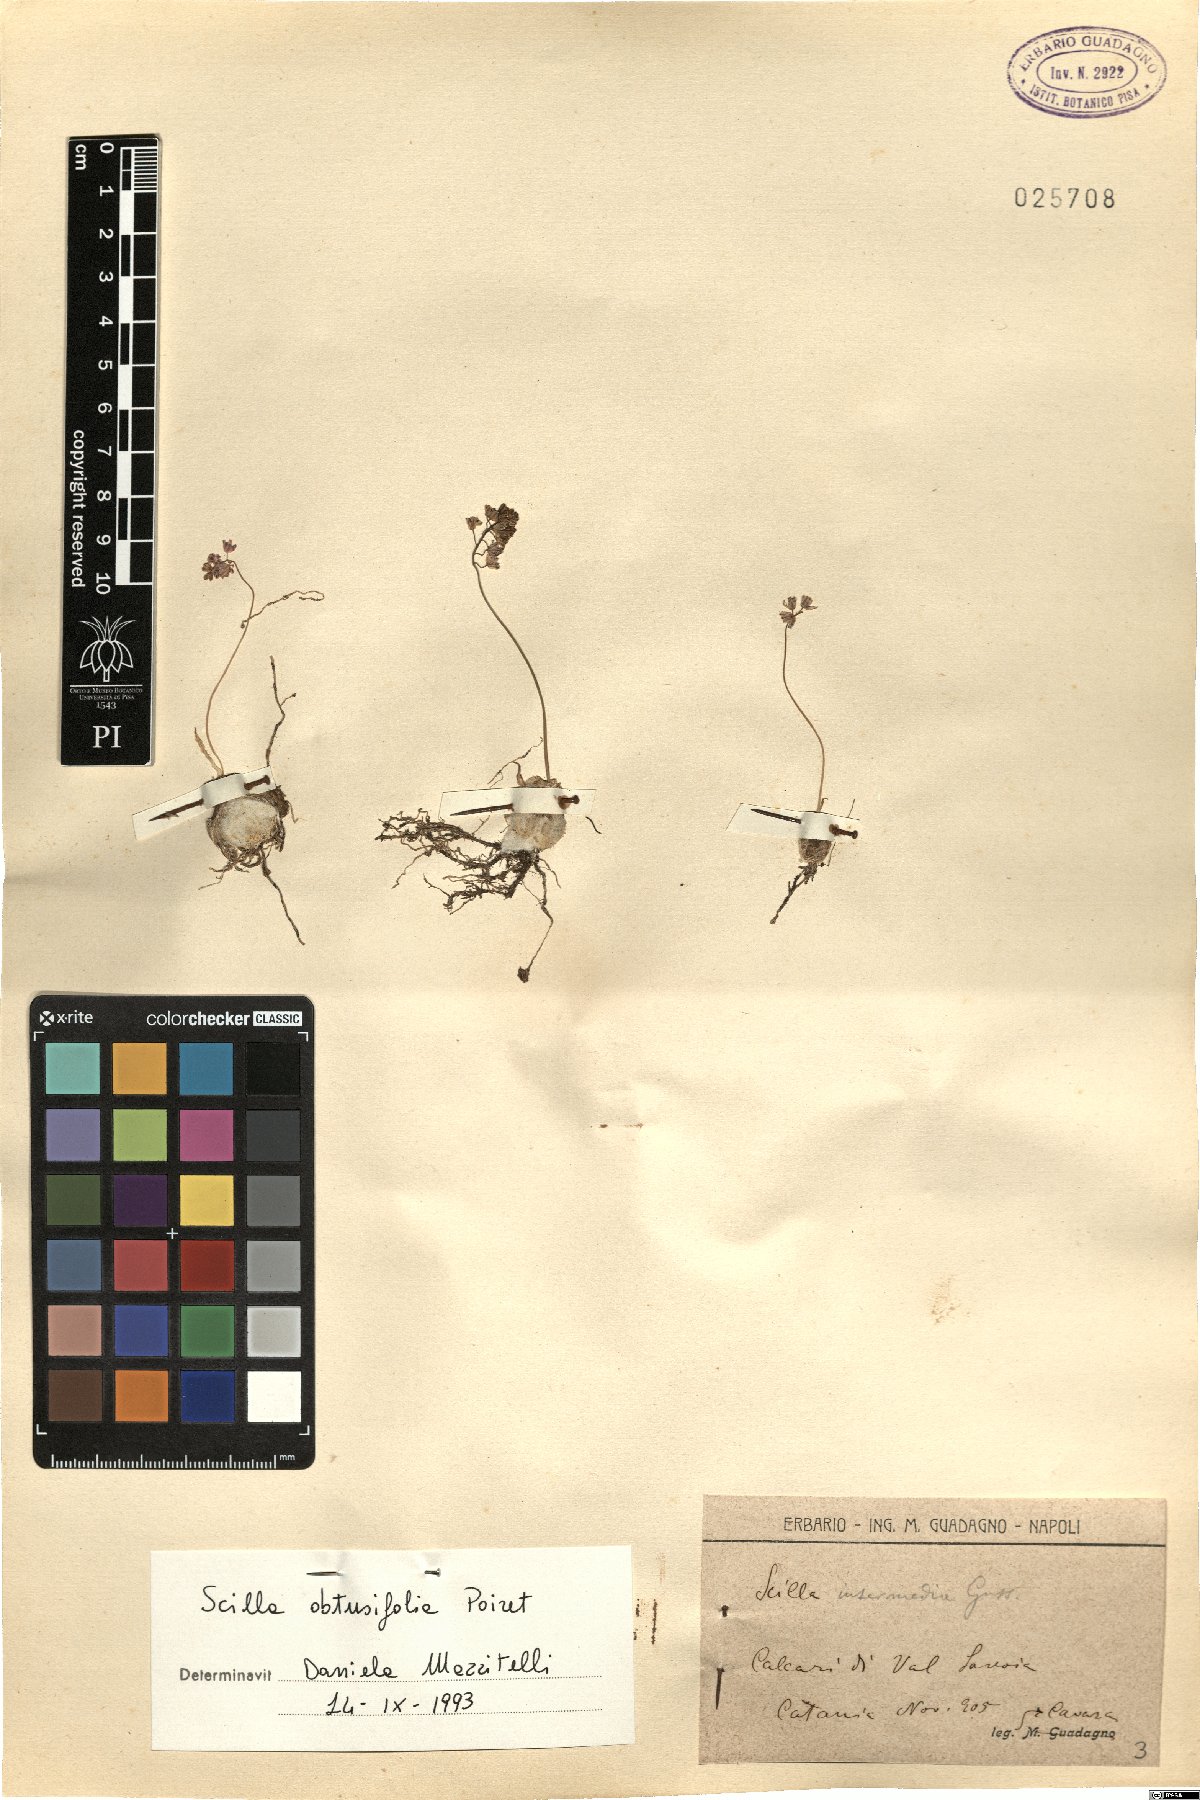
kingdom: Plantae
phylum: Tracheophyta
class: Liliopsida
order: Asparagales
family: Asparagaceae
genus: Prospero
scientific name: Prospero obtusifolium
